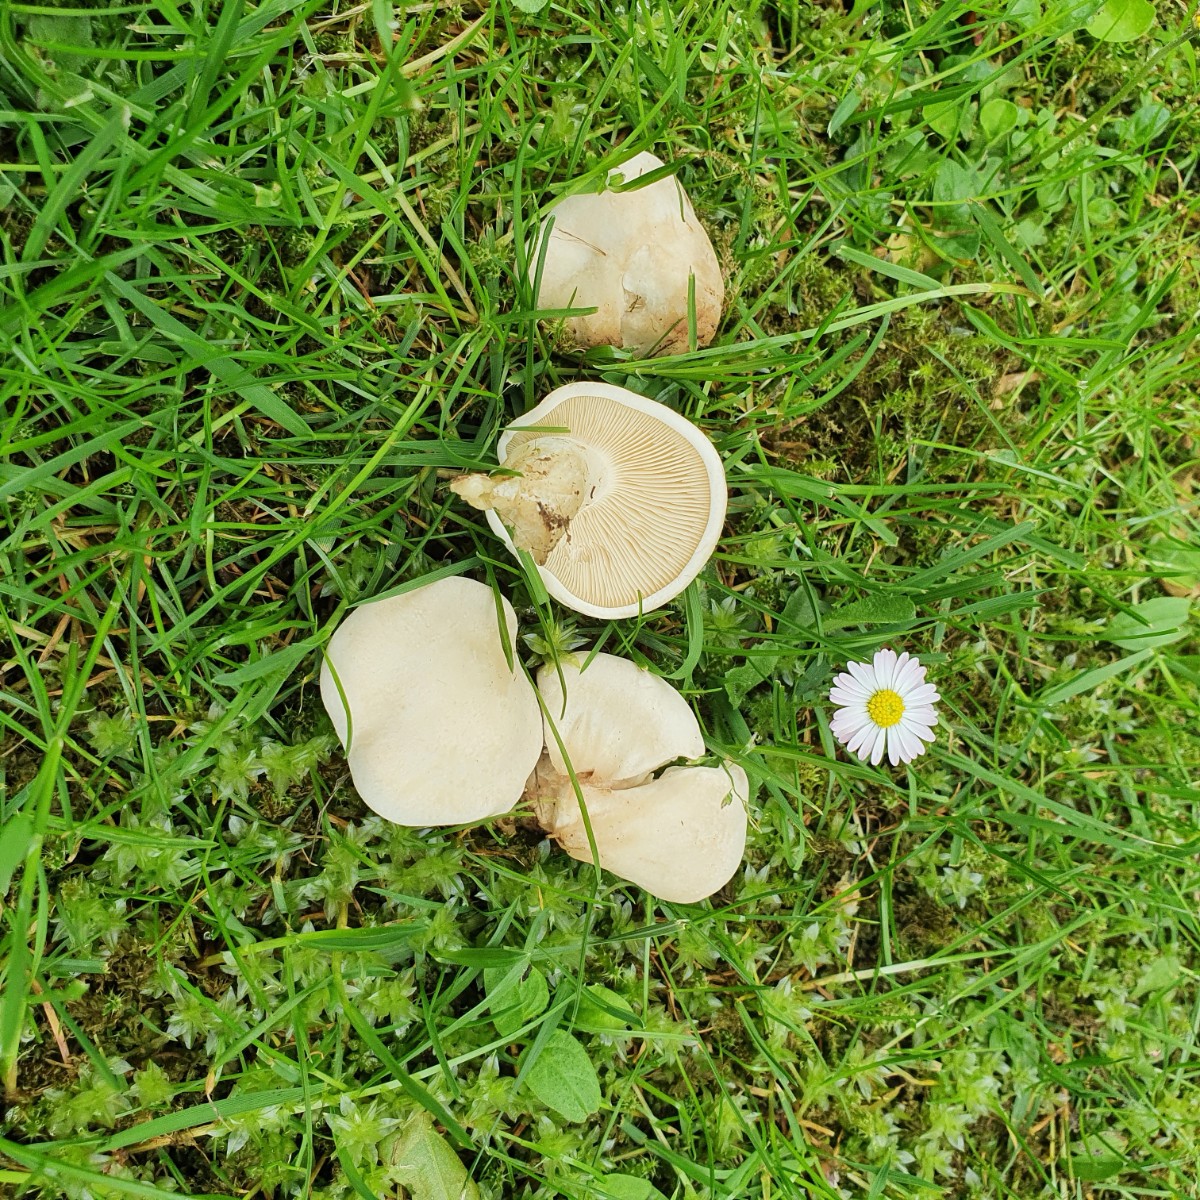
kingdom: Fungi
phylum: Basidiomycota
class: Agaricomycetes
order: Agaricales
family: Lyophyllaceae
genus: Calocybe
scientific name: Calocybe gambosa
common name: vårmusseron
